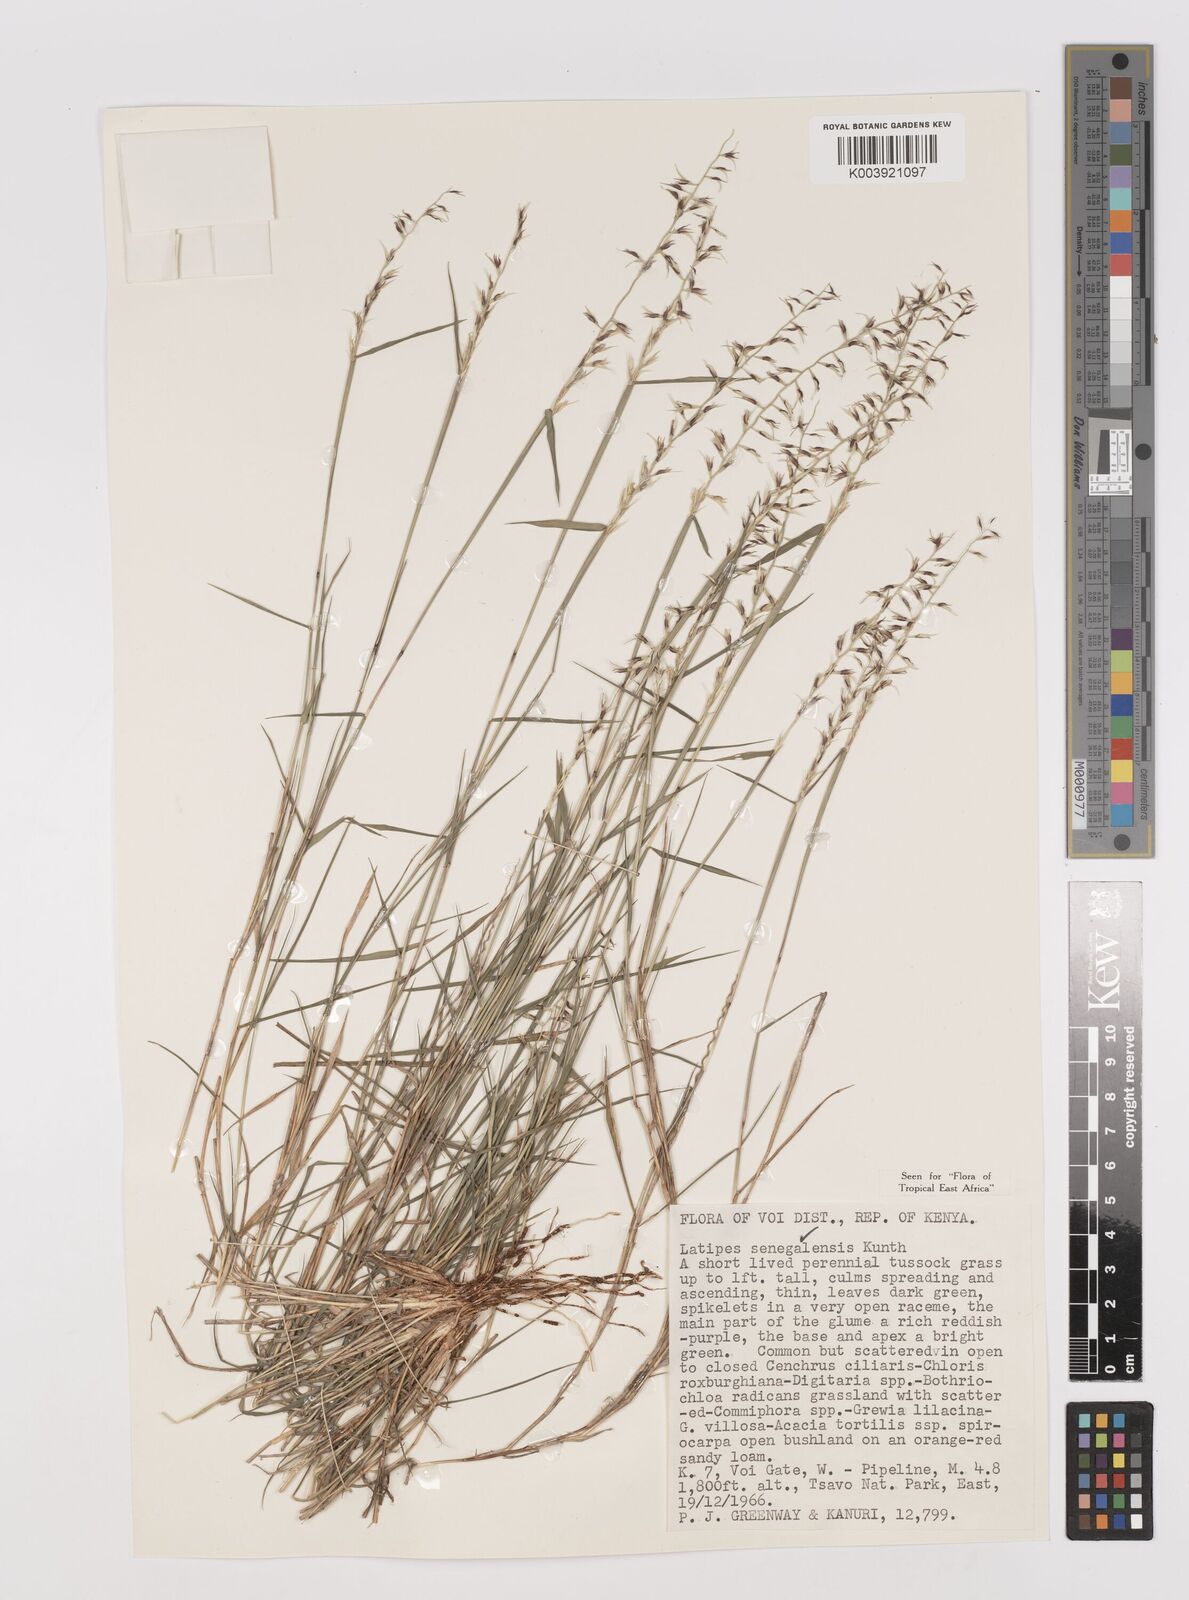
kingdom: Plantae
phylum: Tracheophyta
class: Liliopsida
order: Poales
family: Poaceae
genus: Leptothrium
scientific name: Leptothrium senegalense
